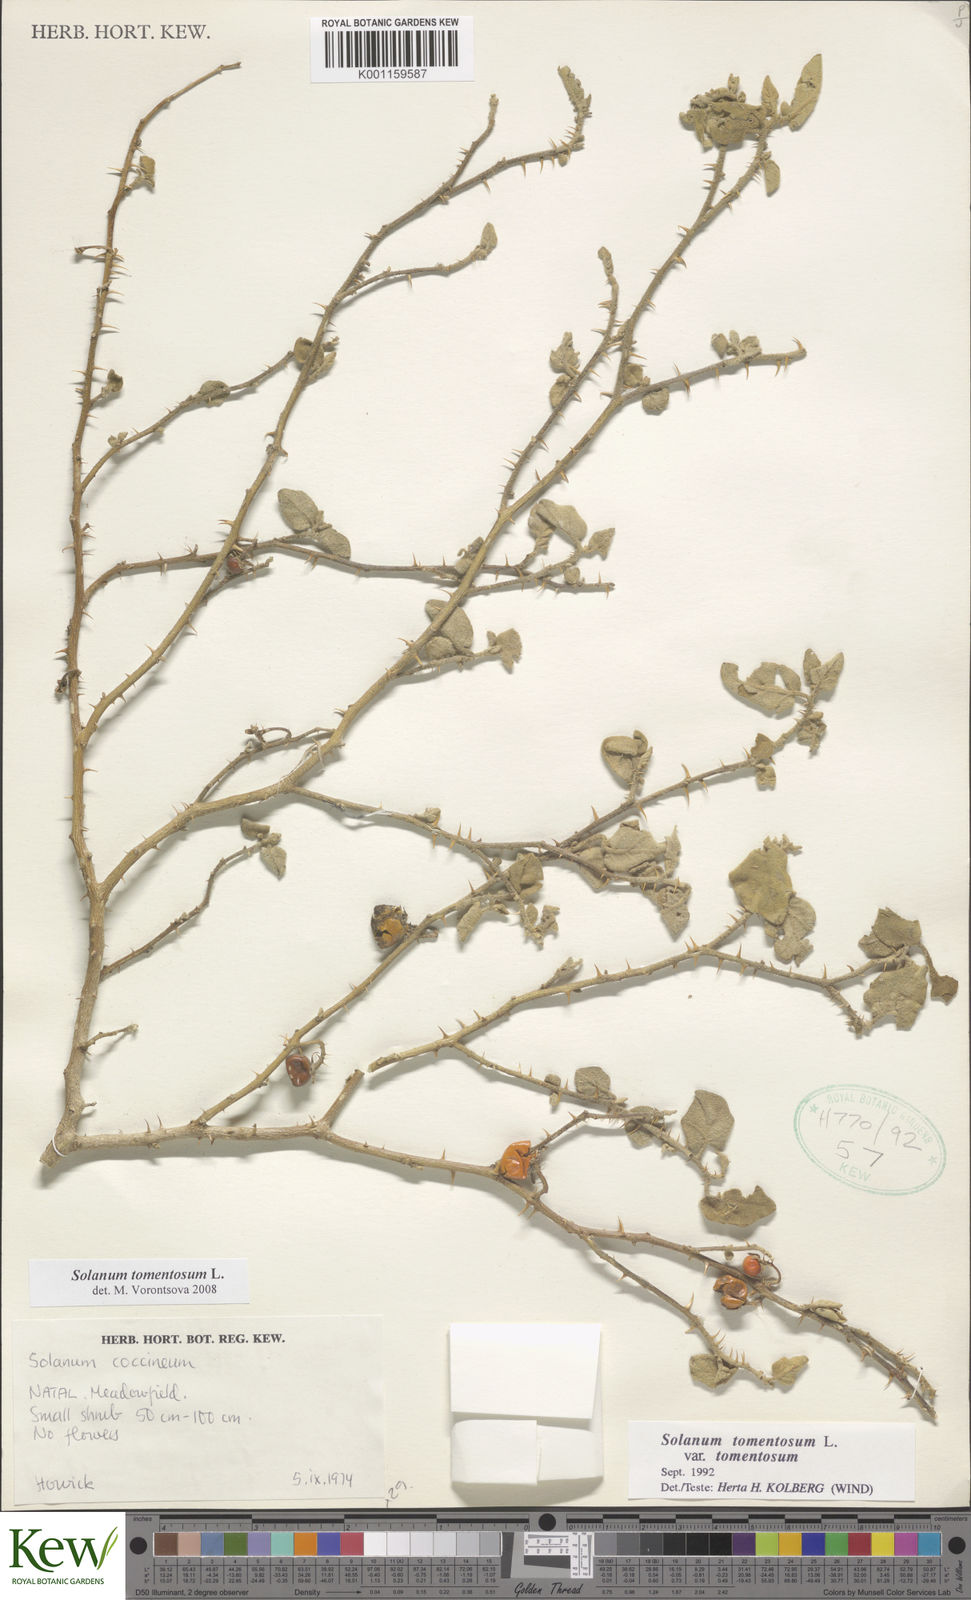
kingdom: Plantae
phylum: Tracheophyta
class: Magnoliopsida
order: Solanales
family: Solanaceae
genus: Solanum
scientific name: Solanum tomentosum
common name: Wild aubergine
